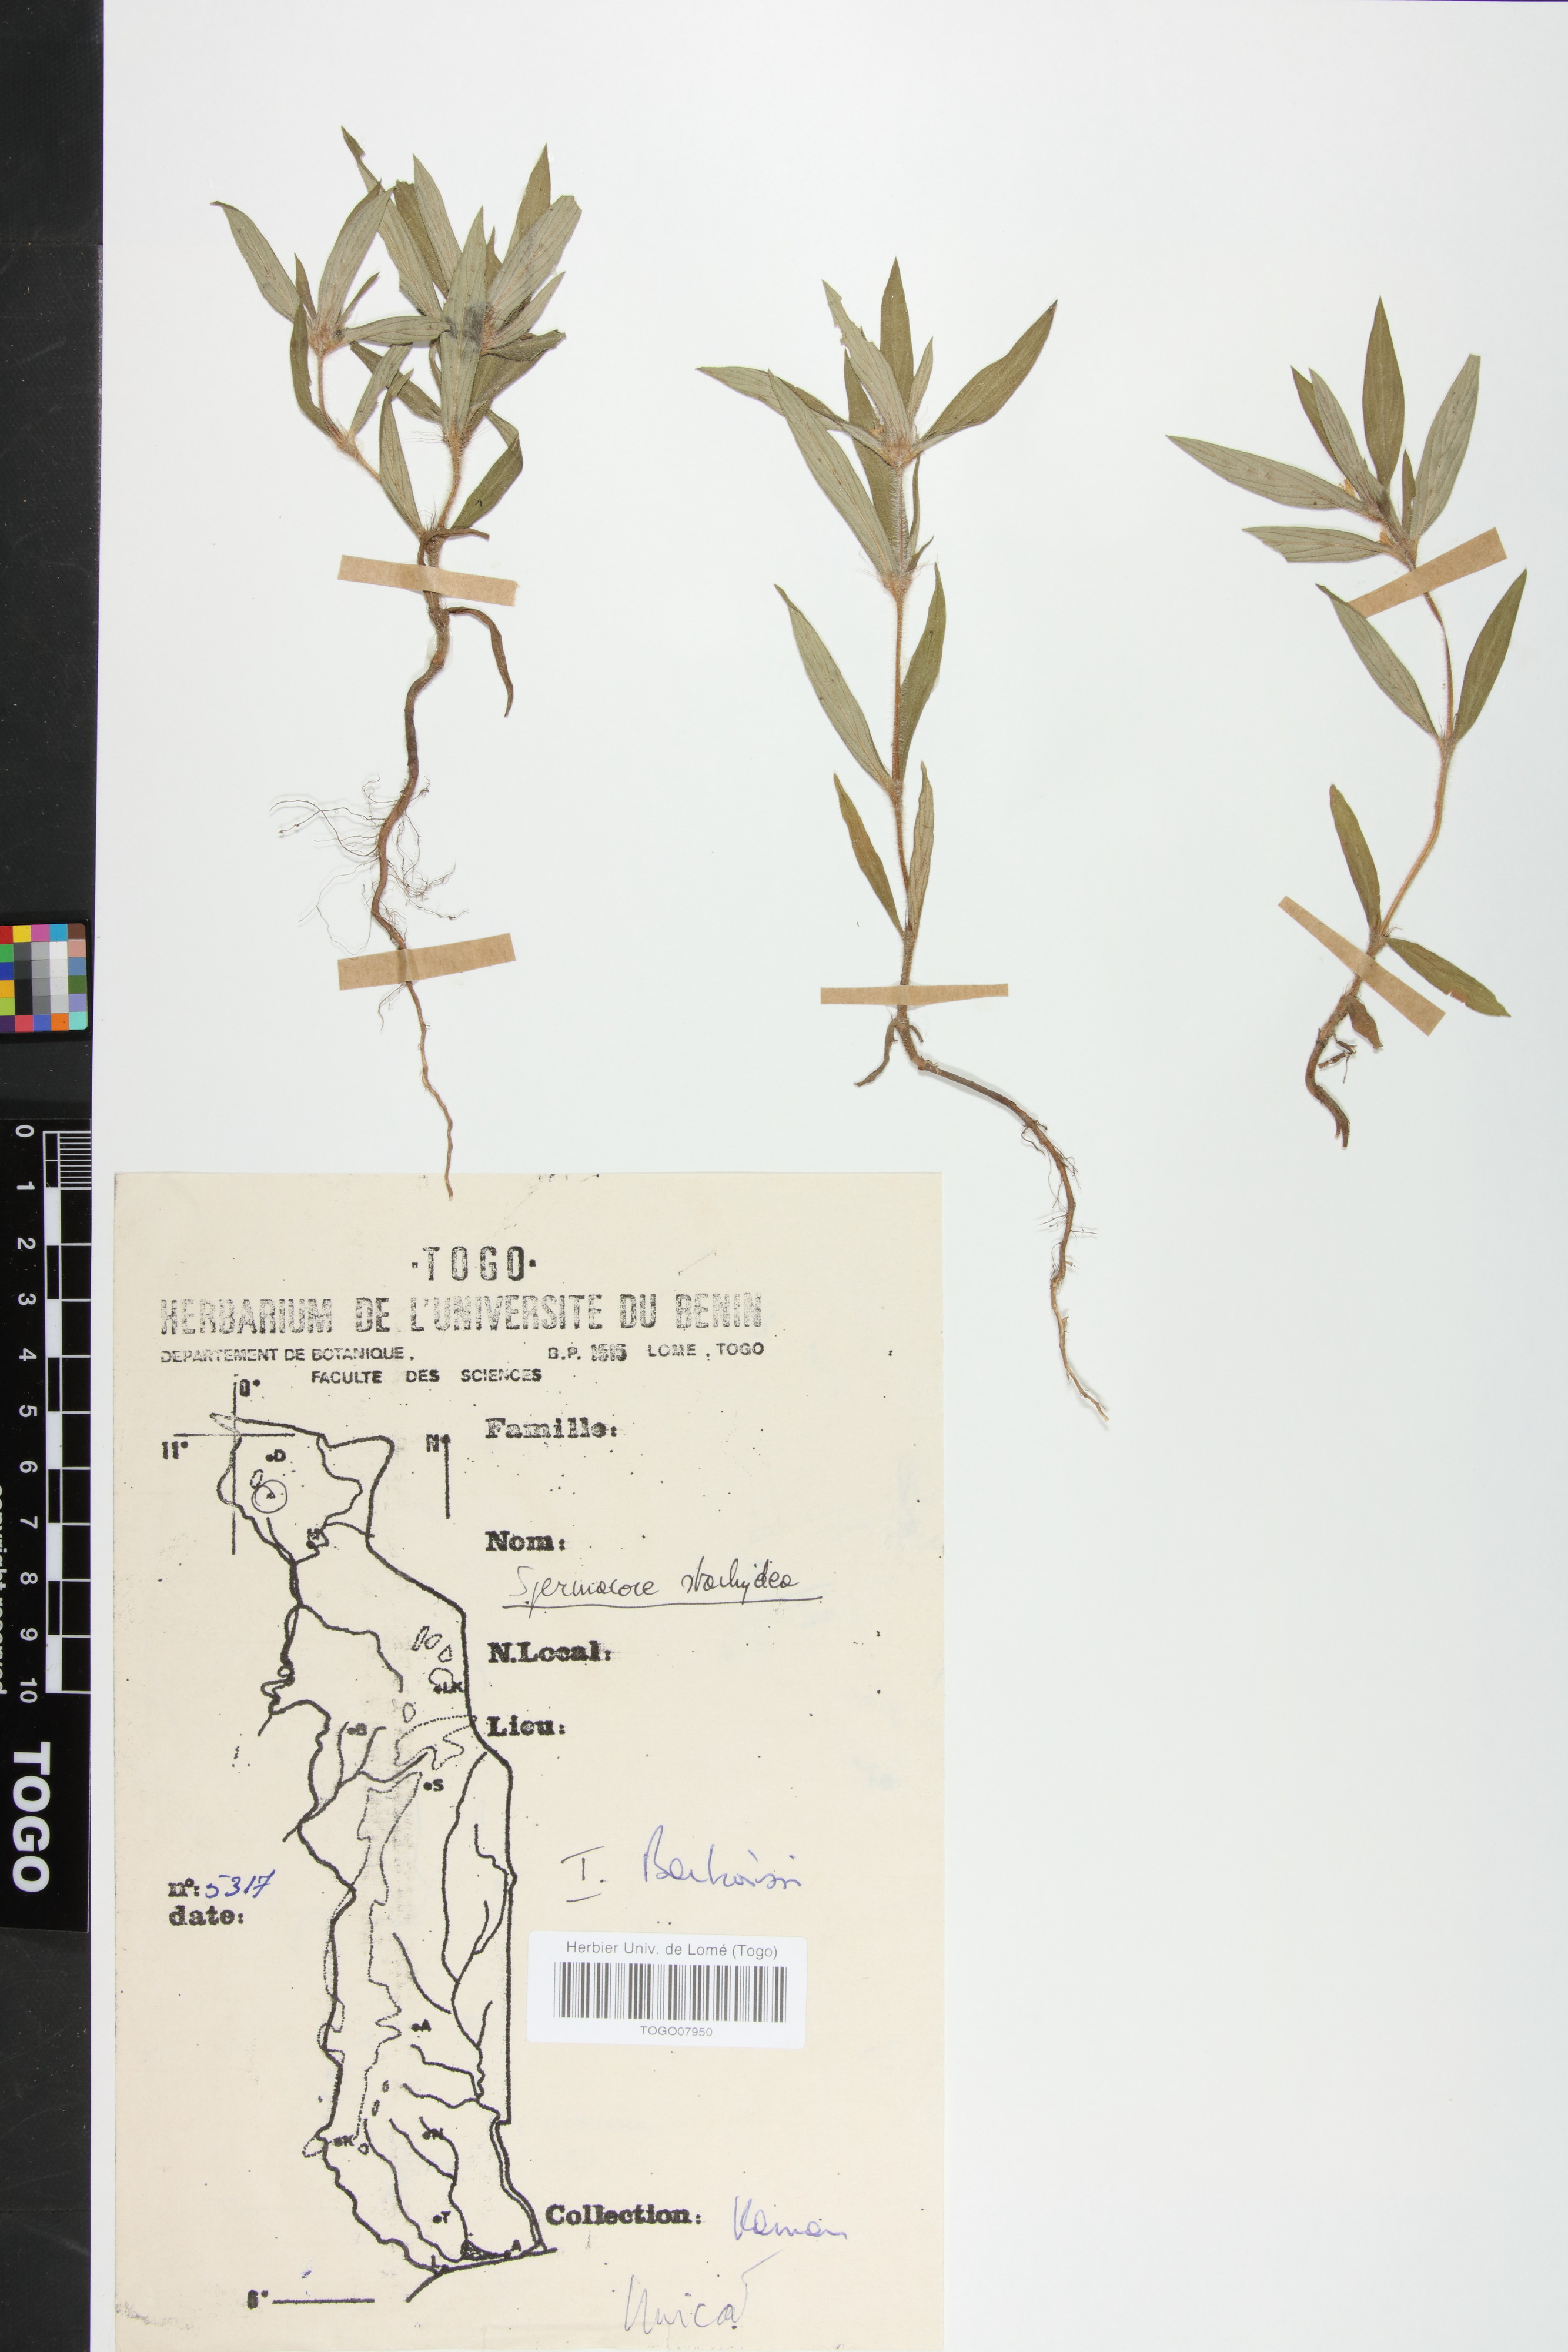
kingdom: Plantae
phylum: Tracheophyta
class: Magnoliopsida
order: Gentianales
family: Rubiaceae
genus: Spermacoce
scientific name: Spermacoce stachydea
